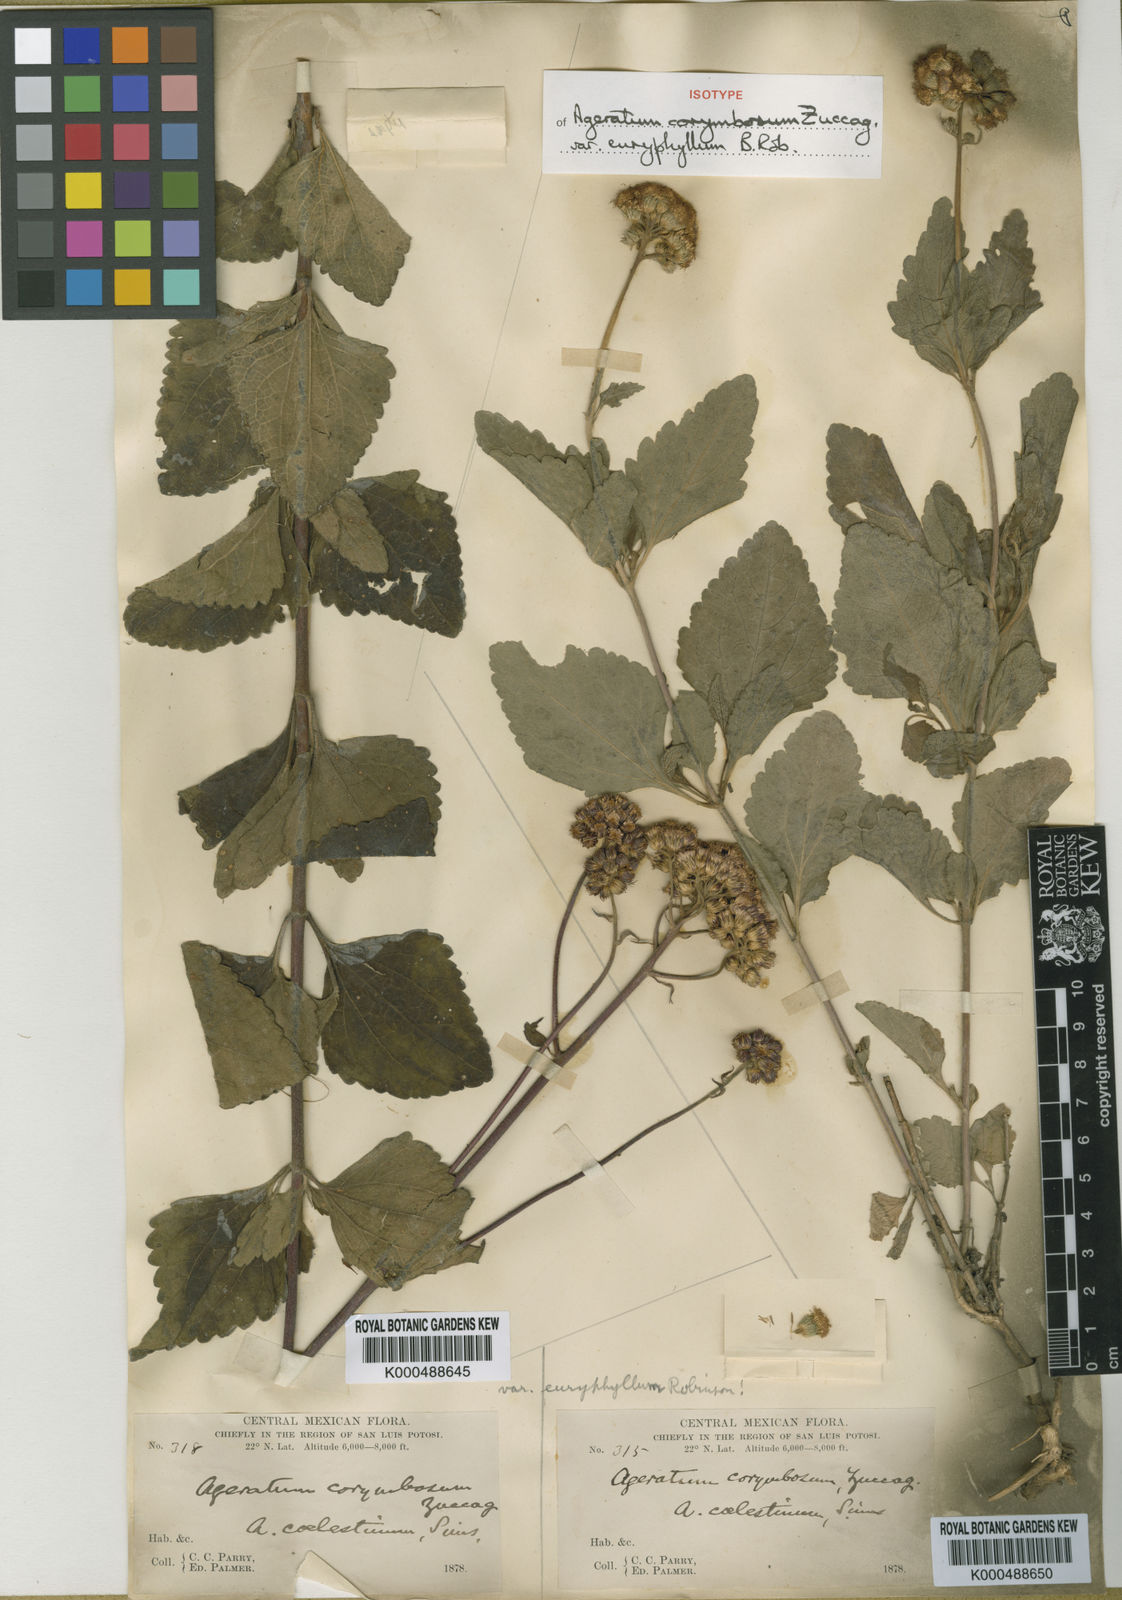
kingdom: Plantae
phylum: Tracheophyta
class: Magnoliopsida
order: Asterales
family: Asteraceae
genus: Ageratum
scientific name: Ageratum corymbosum
